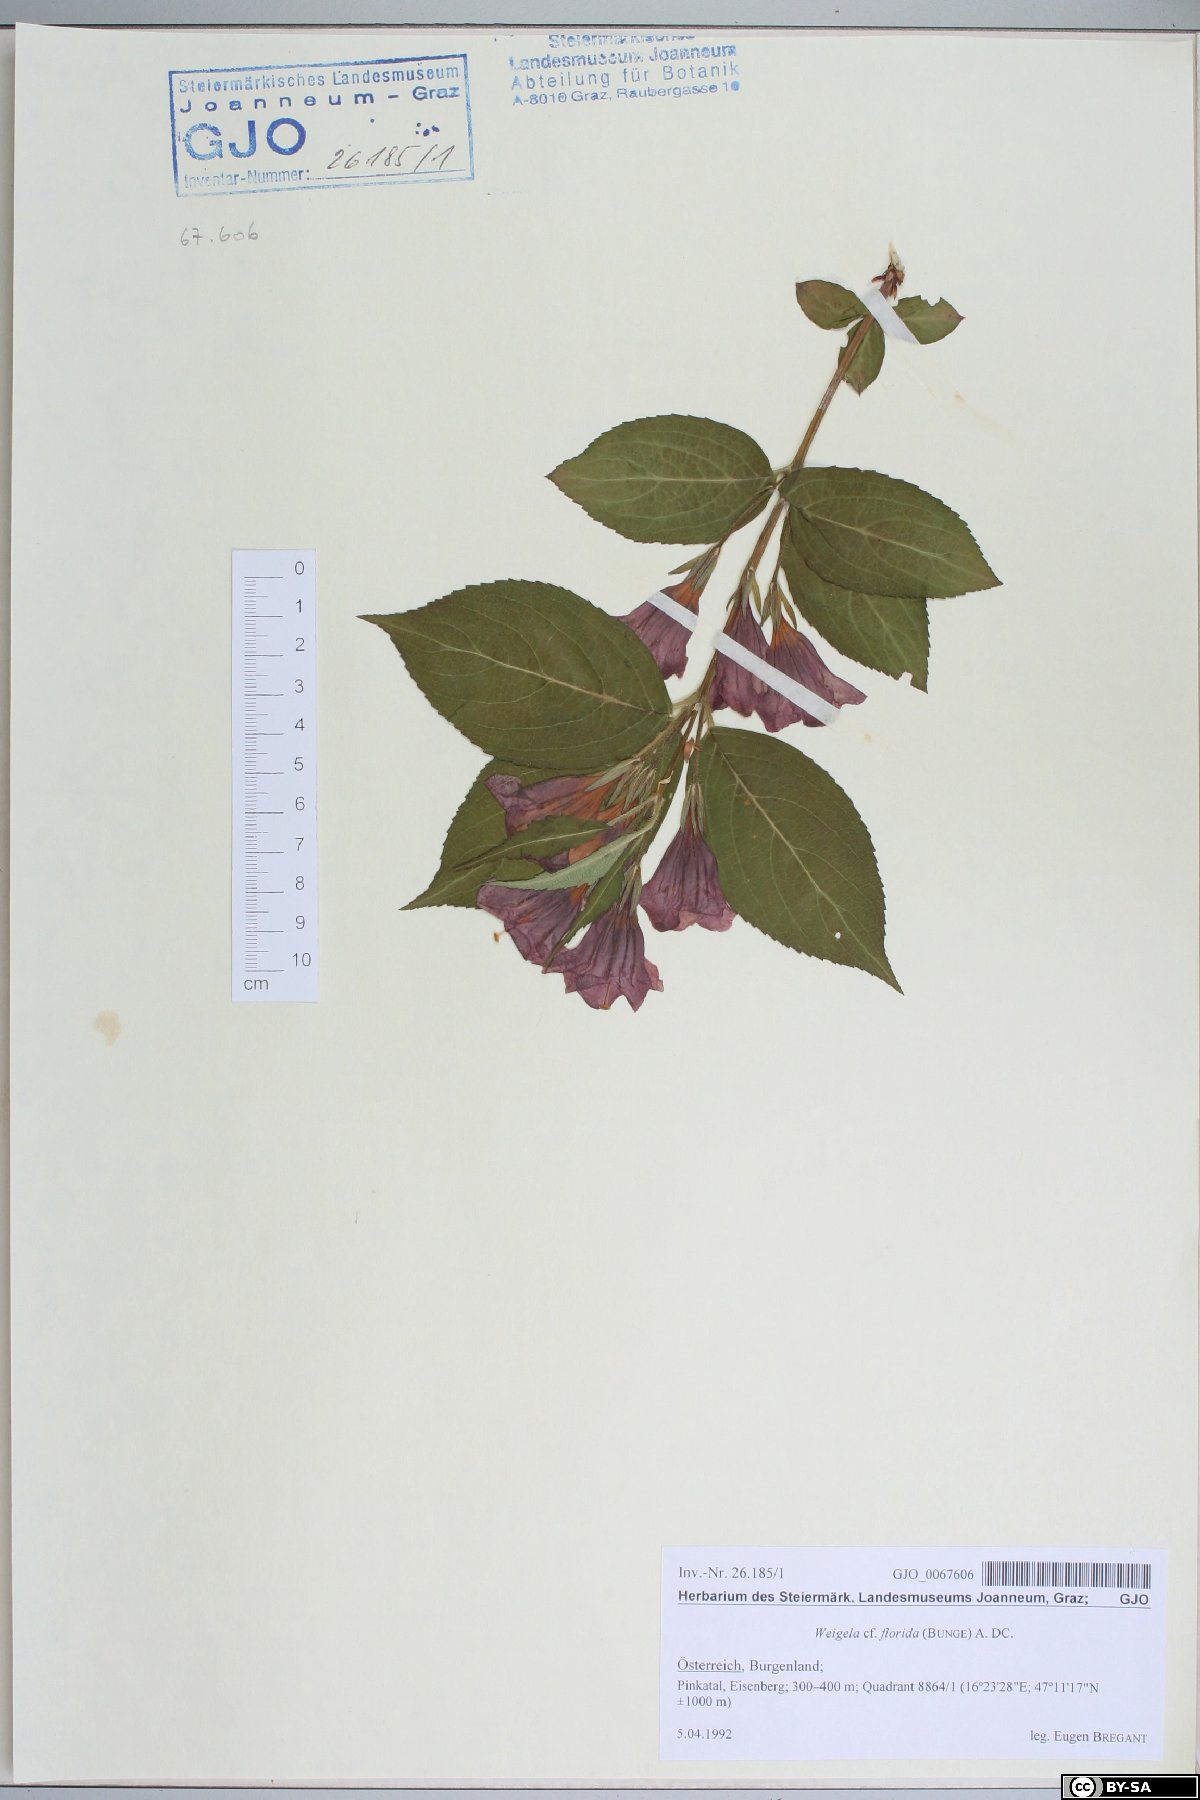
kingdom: Plantae
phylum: Tracheophyta
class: Magnoliopsida
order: Dipsacales
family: Caprifoliaceae
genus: Weigela
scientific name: Weigela florida
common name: Weigelia
